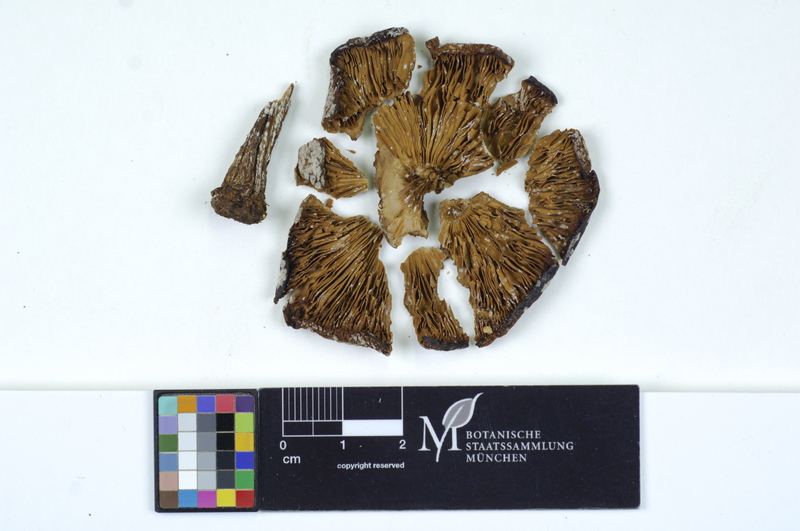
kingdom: Fungi
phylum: Basidiomycota
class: Agaricomycetes
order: Agaricales
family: Tricholomataceae
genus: Melanoleuca
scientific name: Melanoleuca cognata
